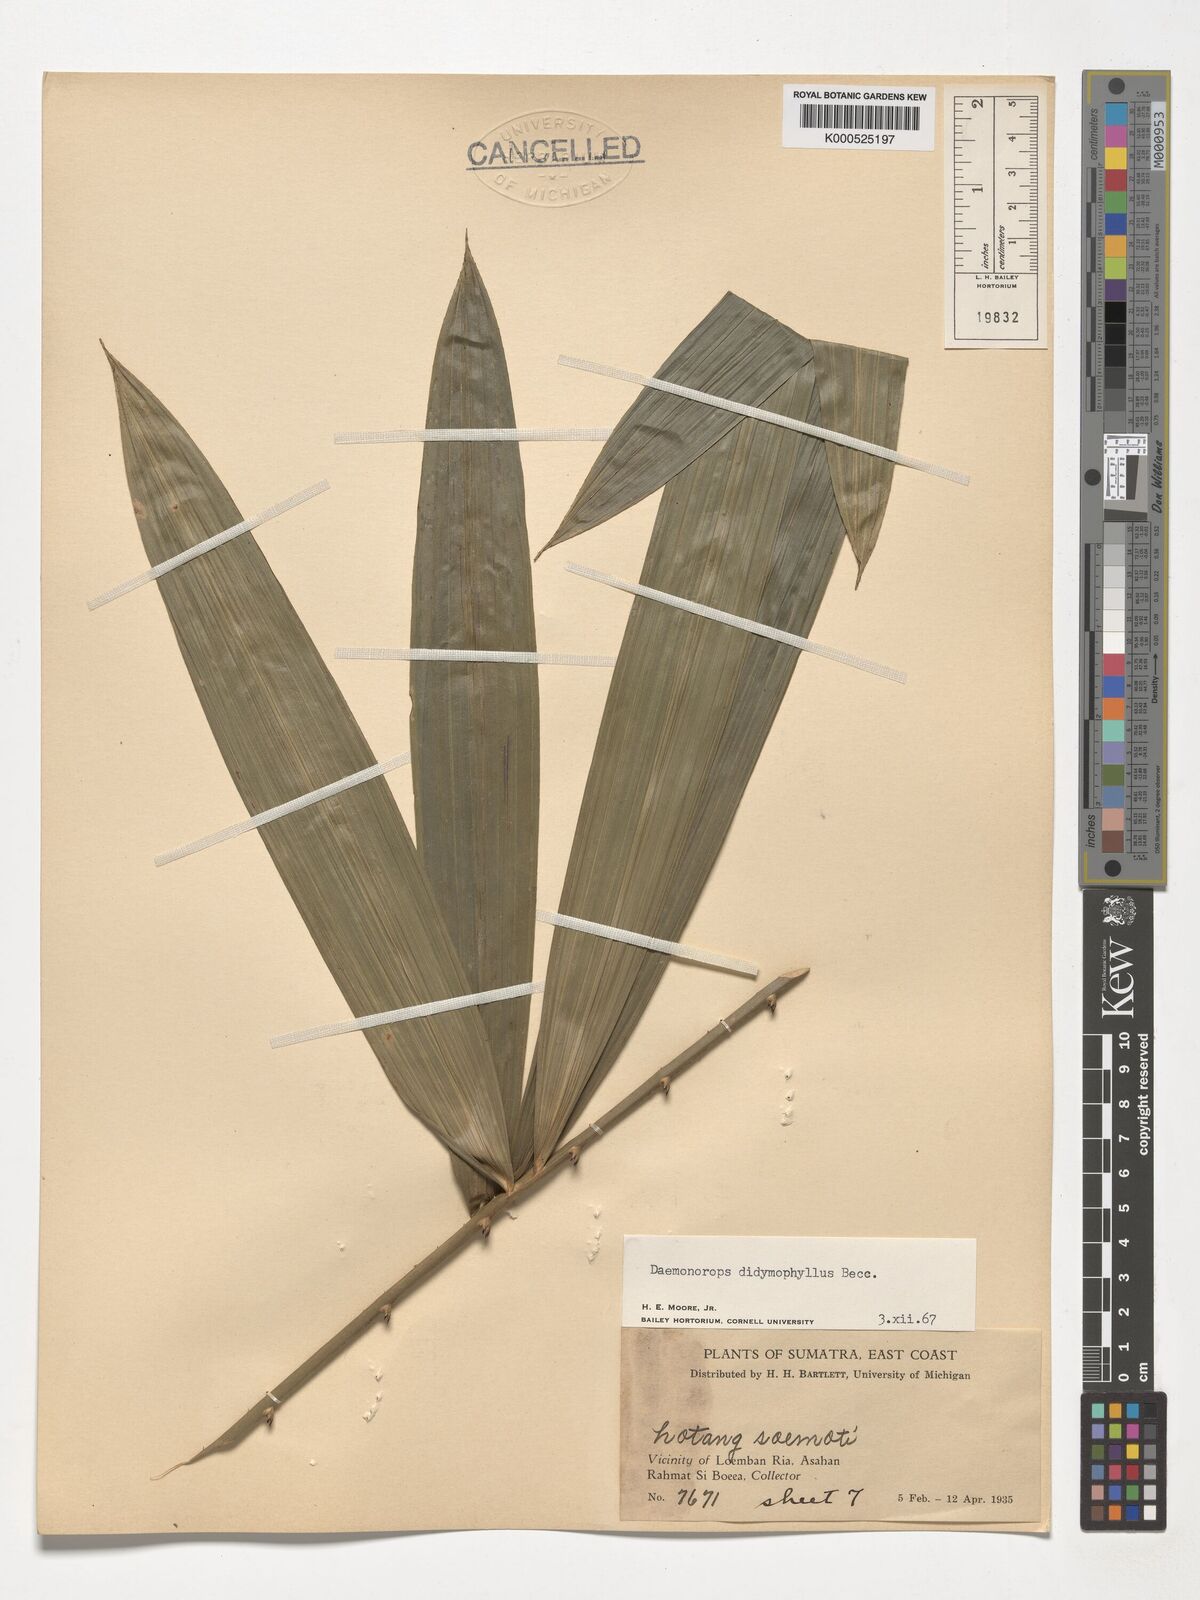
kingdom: Plantae
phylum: Tracheophyta
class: Liliopsida
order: Arecales
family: Arecaceae
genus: Calamus
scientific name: Calamus gracilipes
